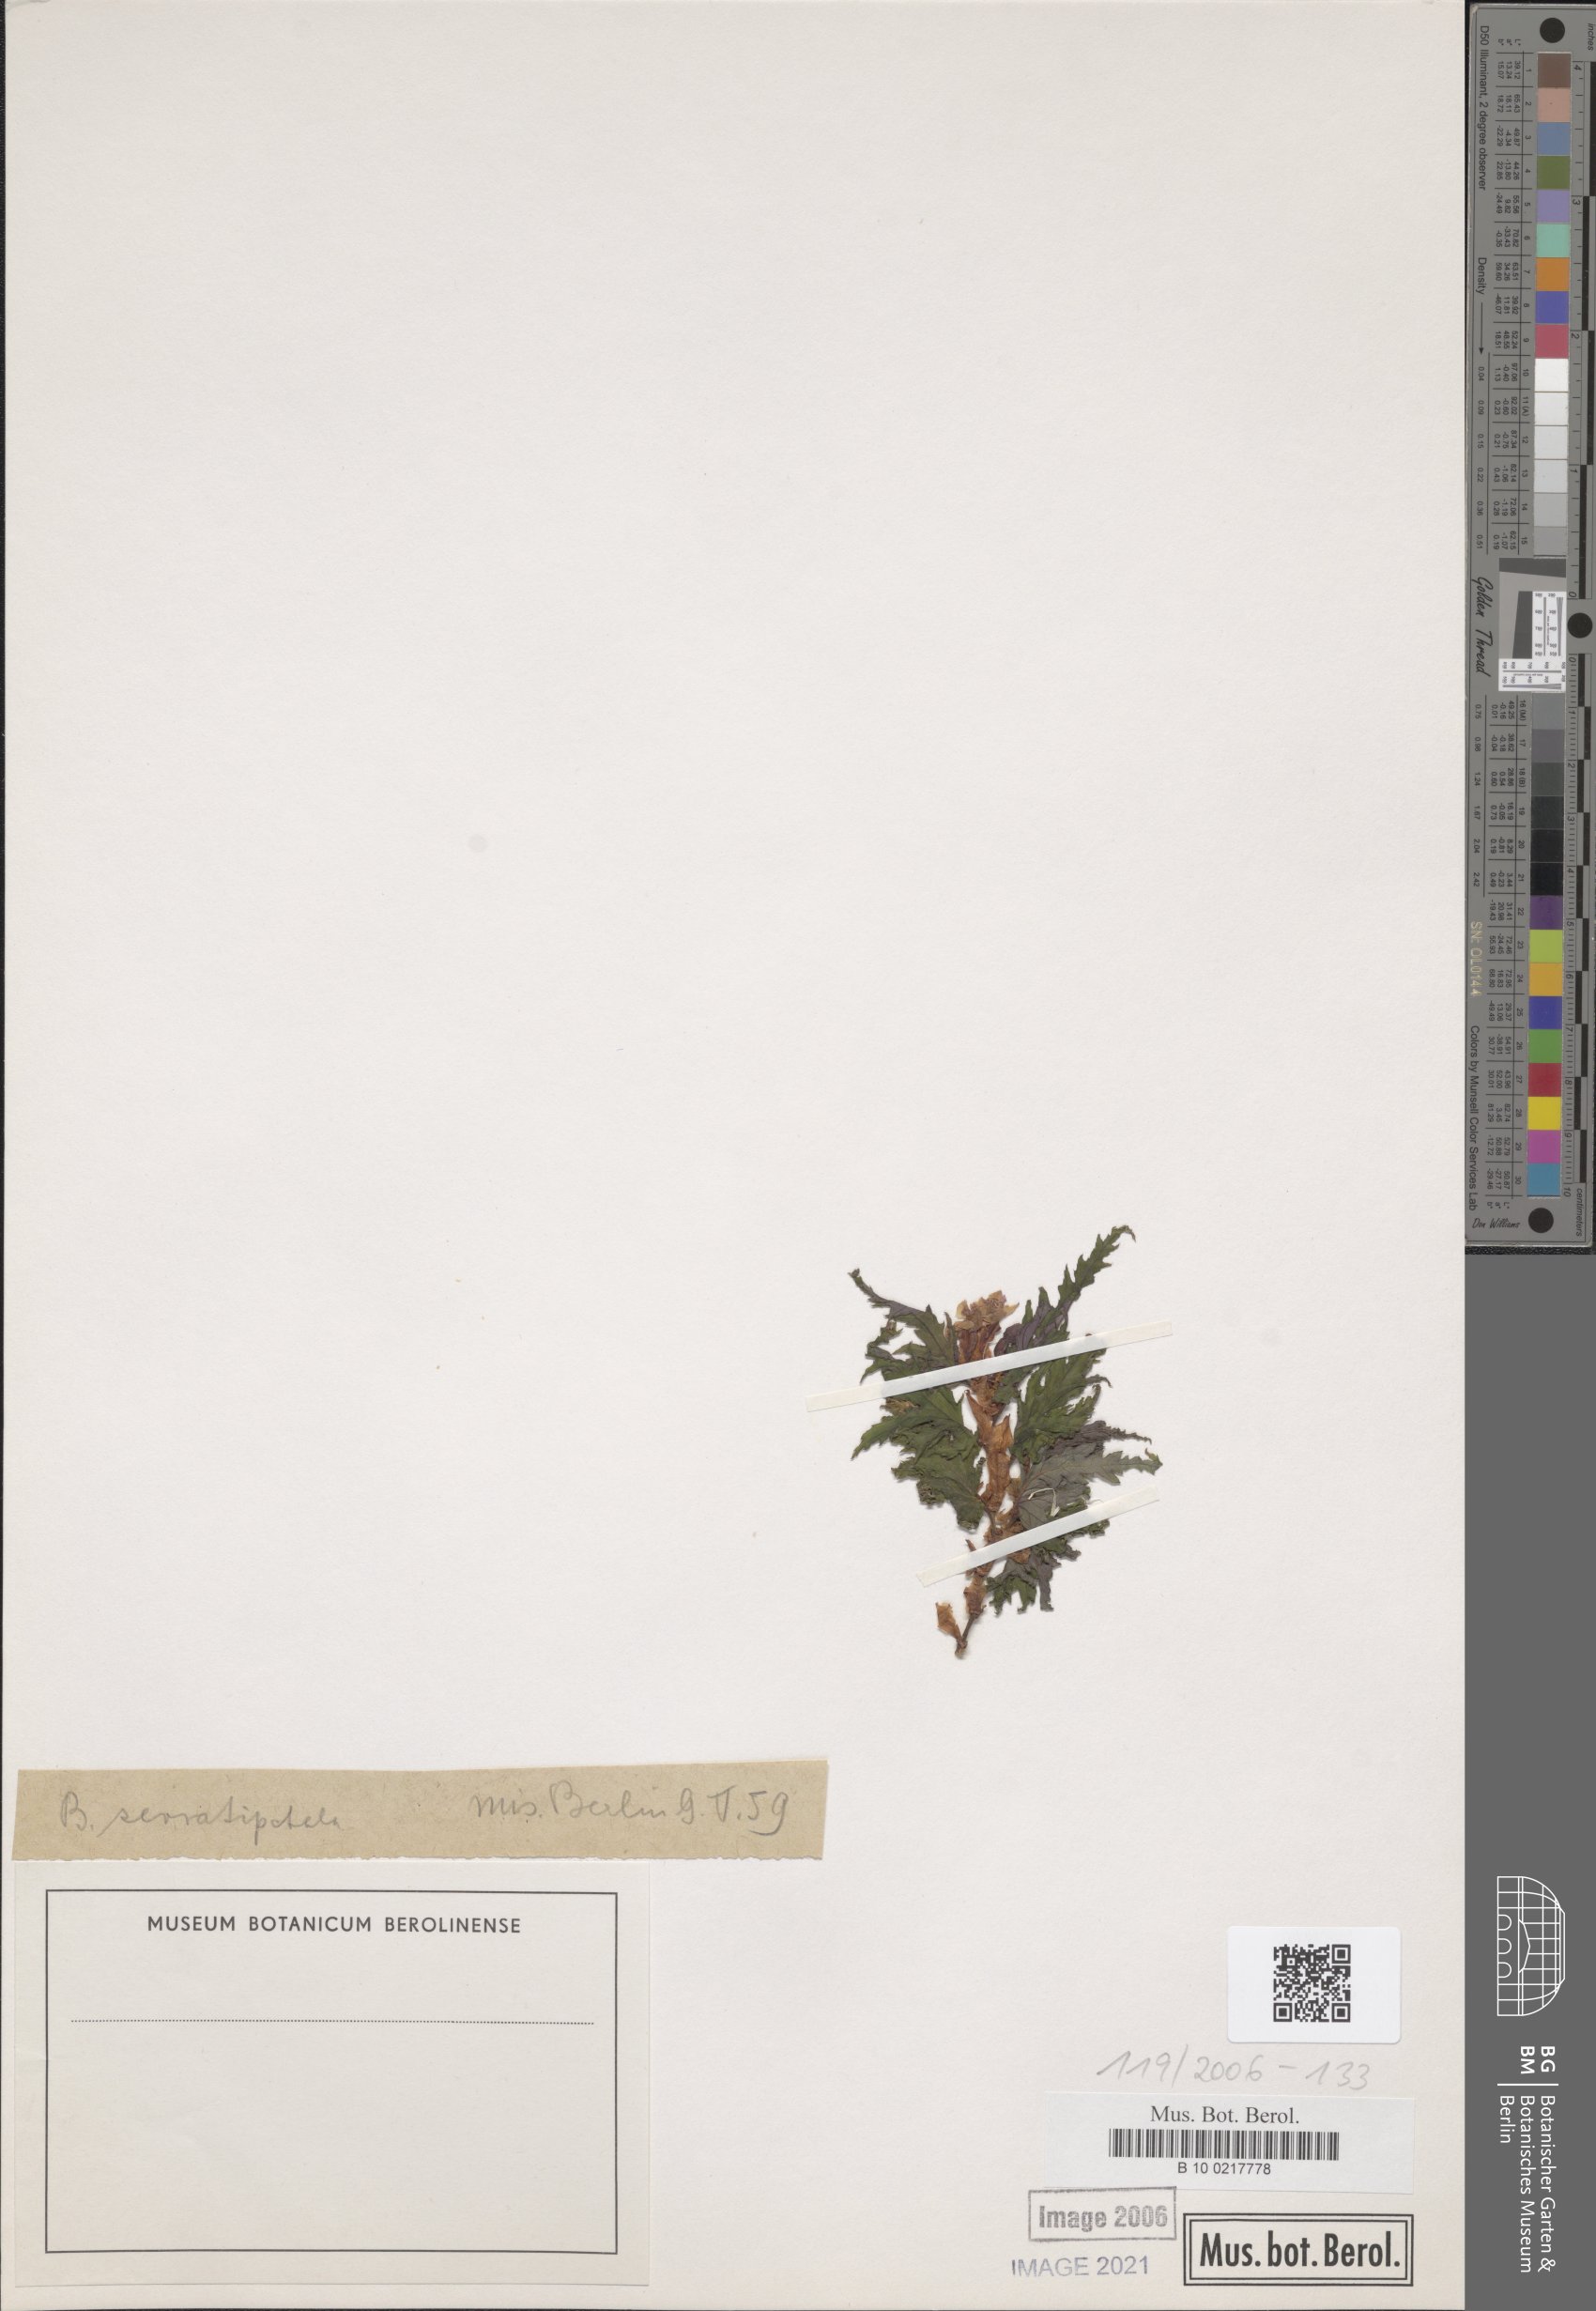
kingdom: Plantae
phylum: Tracheophyta
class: Magnoliopsida
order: Cucurbitales
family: Begoniaceae
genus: Begonia
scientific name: Begonia serratipetala
